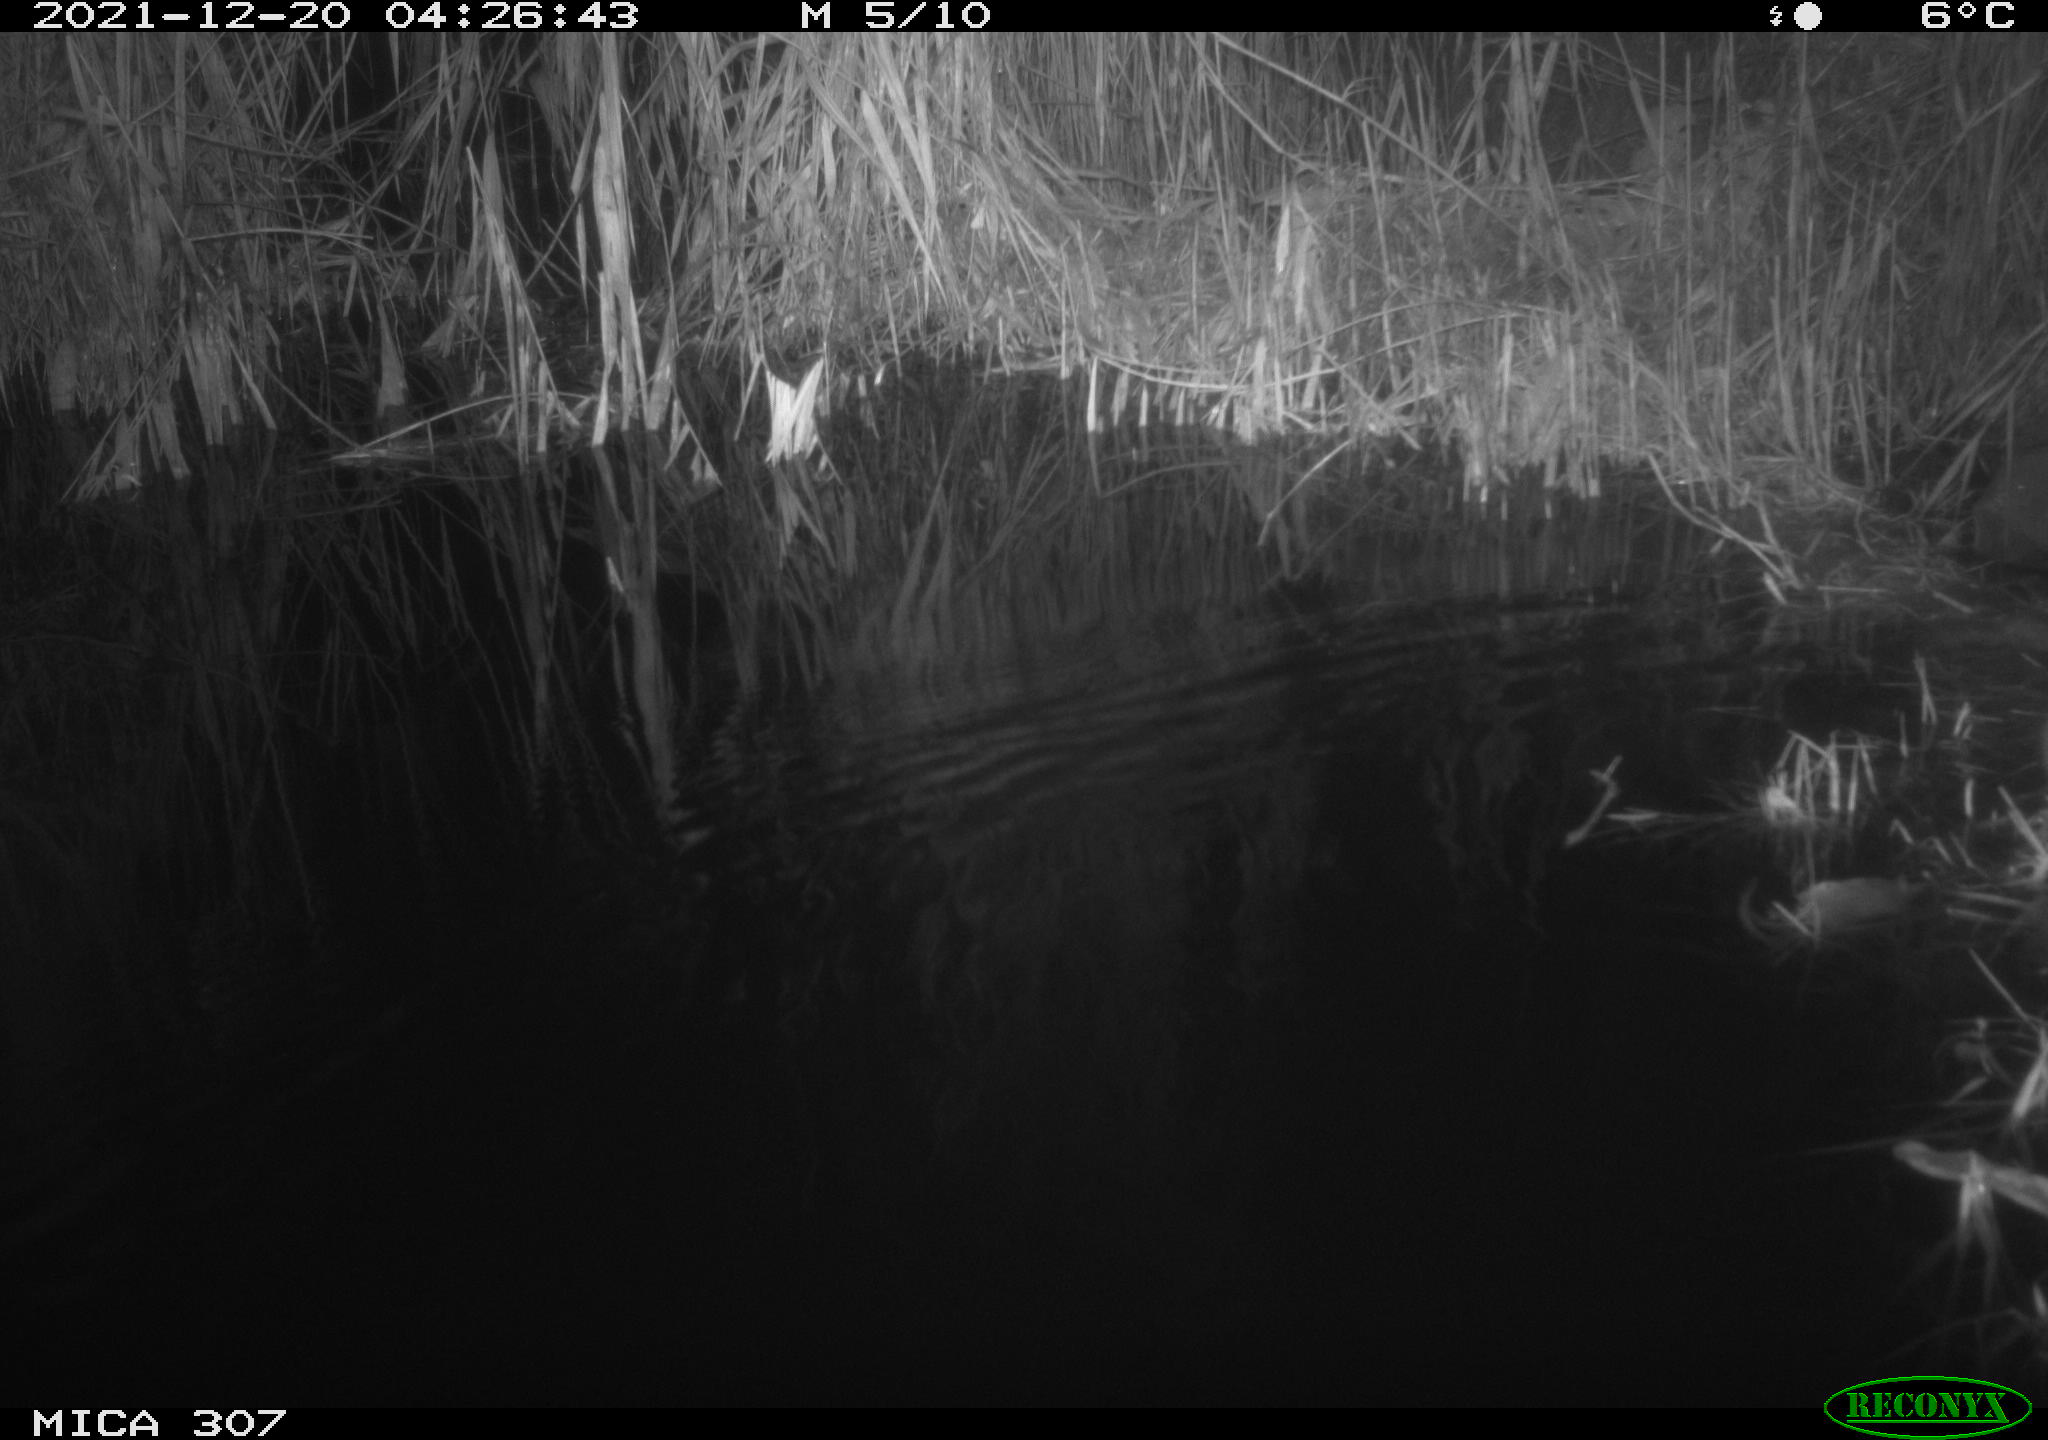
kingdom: Animalia
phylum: Chordata
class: Mammalia
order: Rodentia
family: Muridae
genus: Rattus
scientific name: Rattus norvegicus
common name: Brown rat
